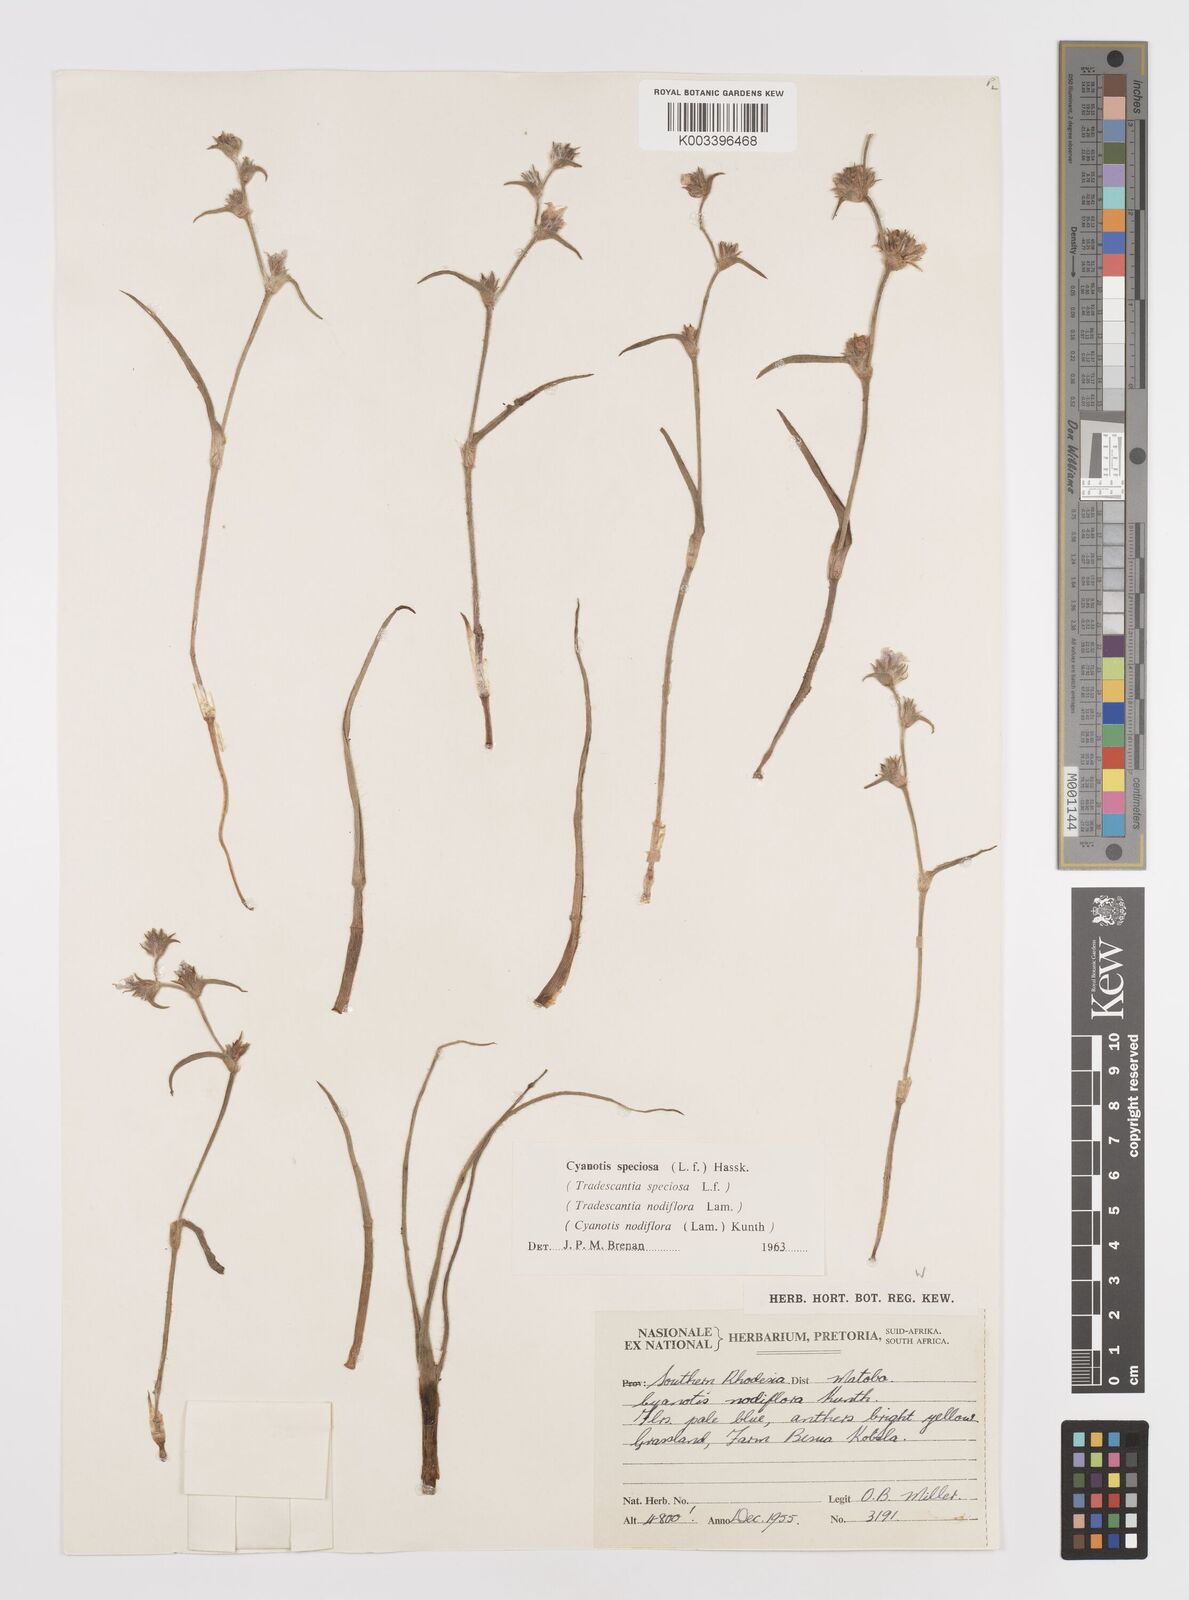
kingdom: Plantae
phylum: Tracheophyta
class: Liliopsida
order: Commelinales
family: Commelinaceae
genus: Cyanotis
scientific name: Cyanotis speciosa
